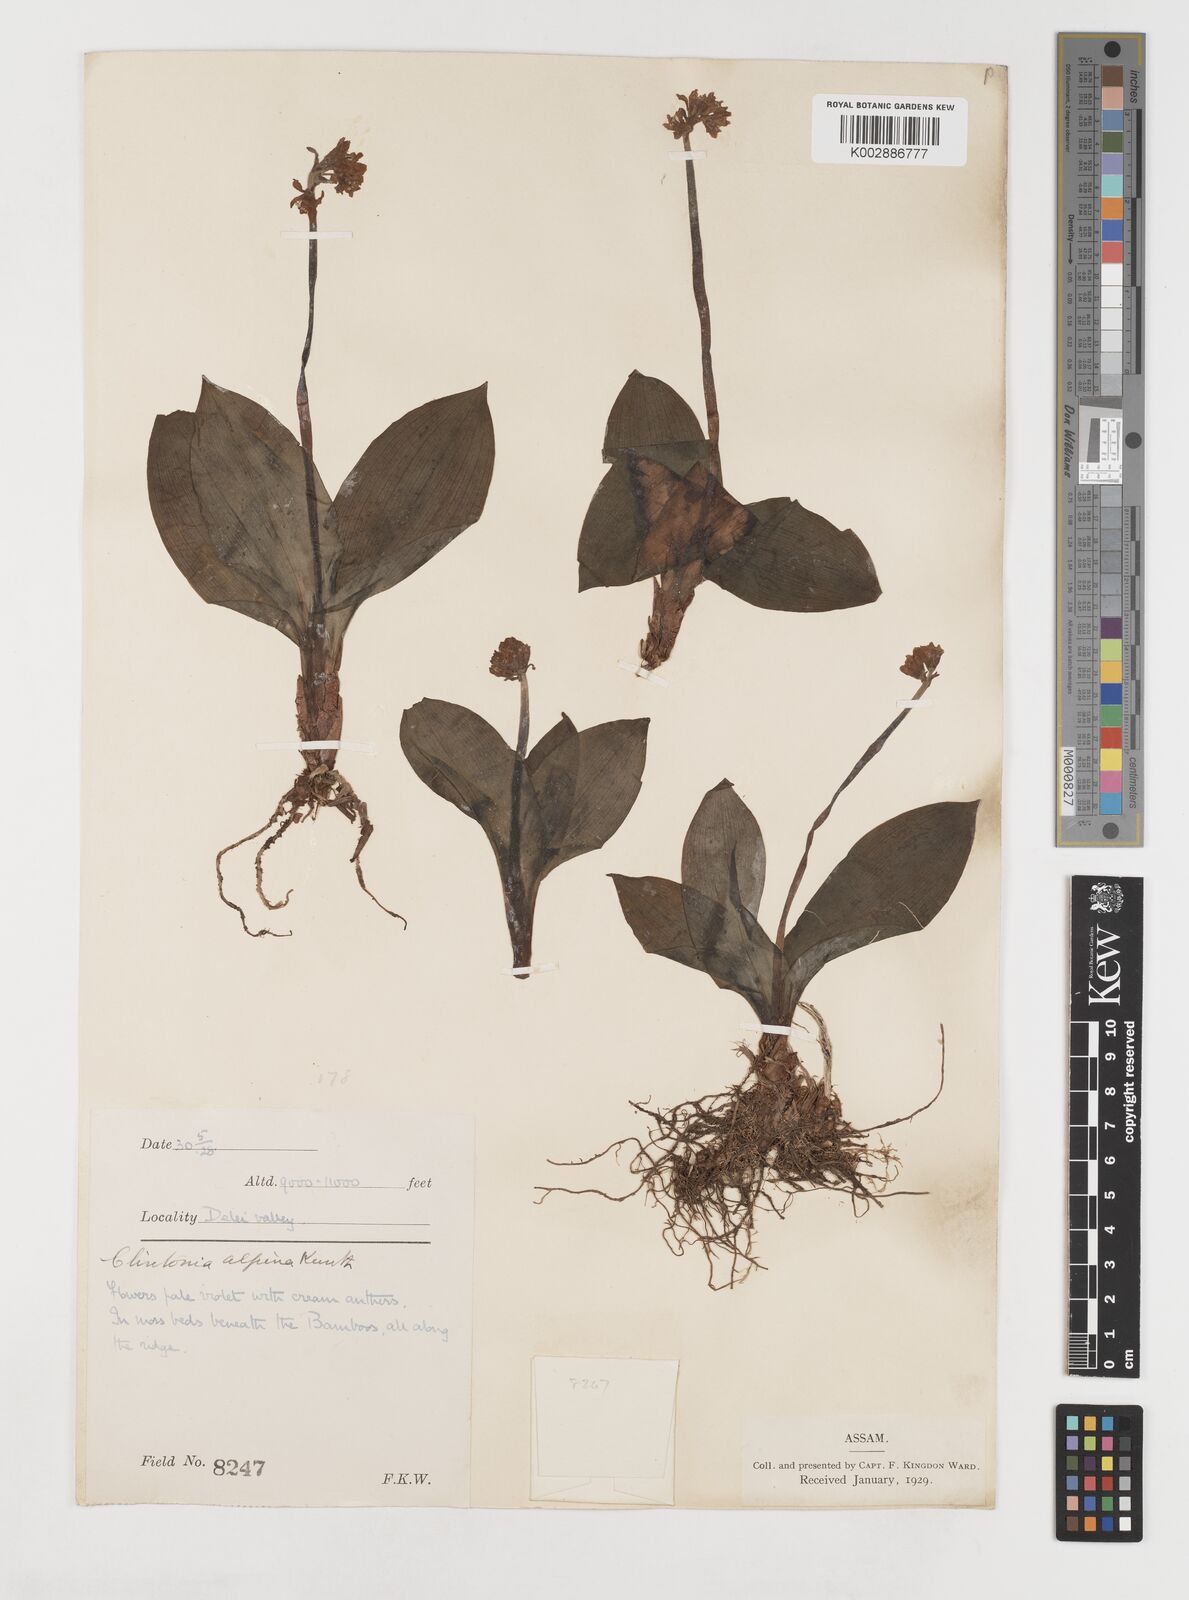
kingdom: Plantae
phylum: Tracheophyta
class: Liliopsida
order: Liliales
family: Liliaceae
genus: Clintonia
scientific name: Clintonia udensis
